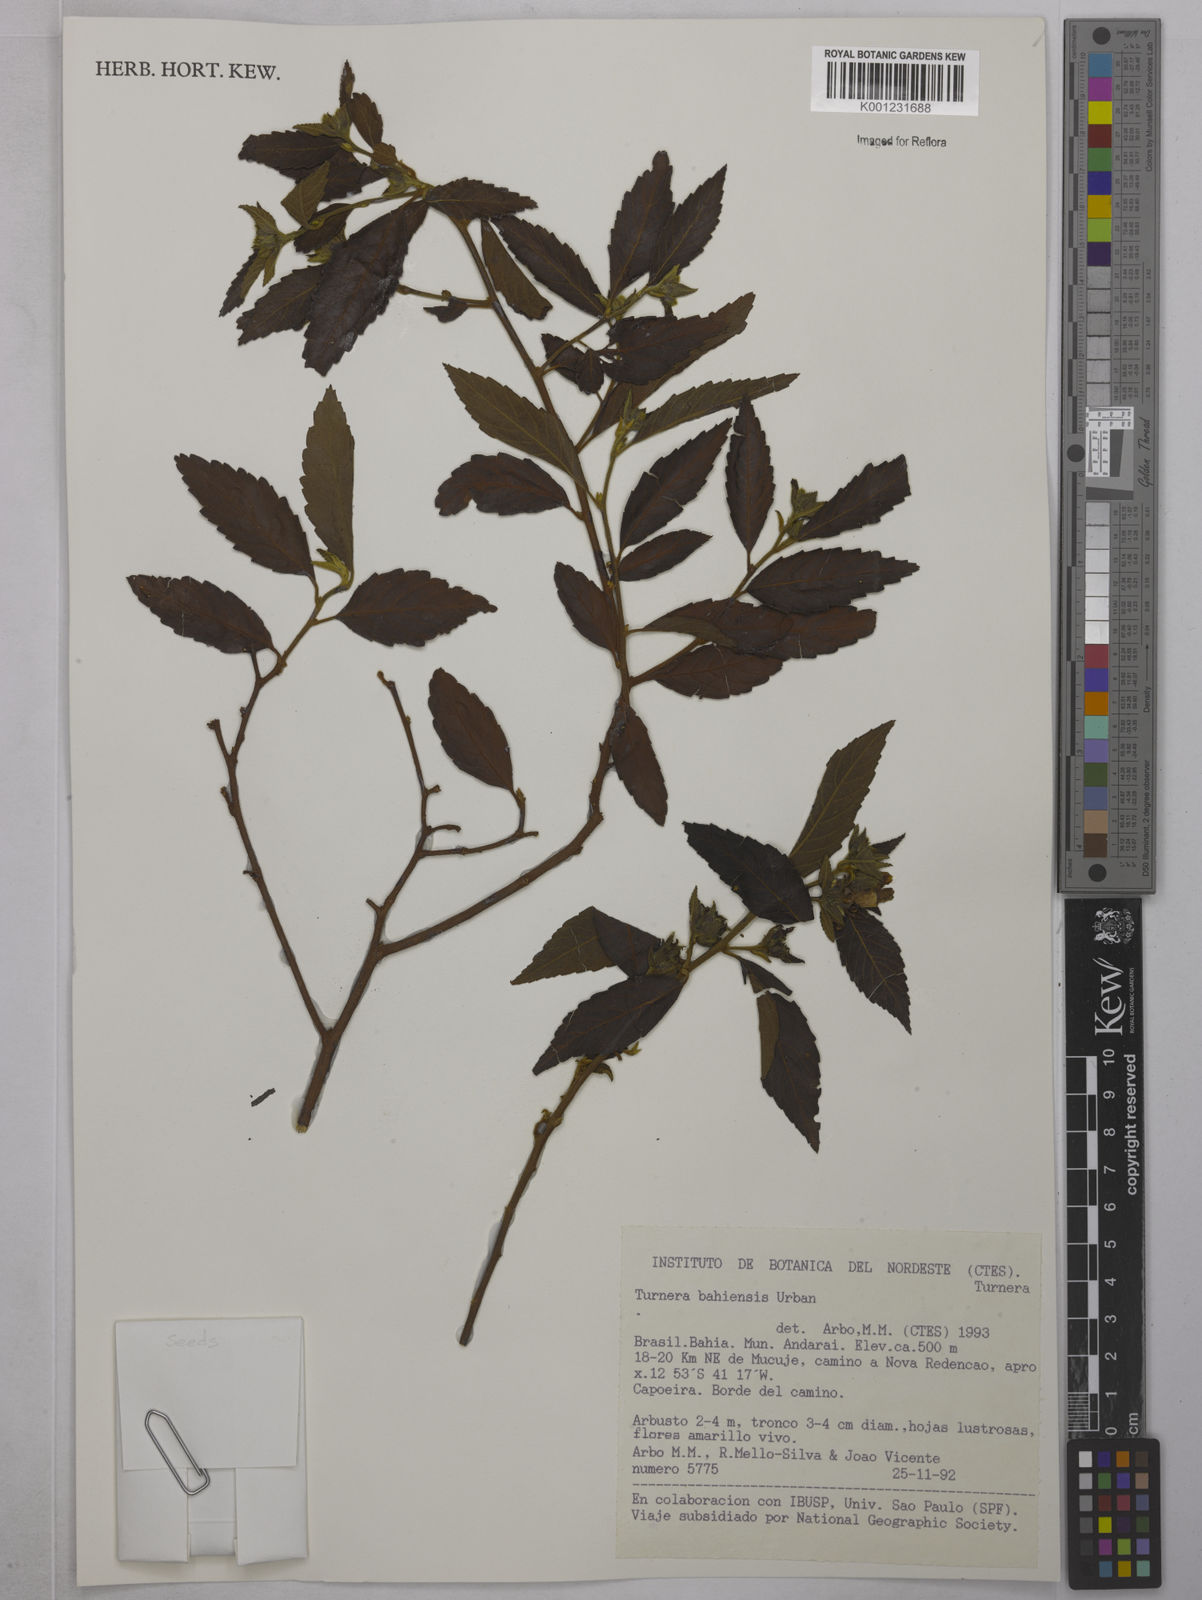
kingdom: Plantae
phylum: Tracheophyta
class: Magnoliopsida
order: Malpighiales
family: Turneraceae
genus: Turnera
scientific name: Turnera bahiensis
